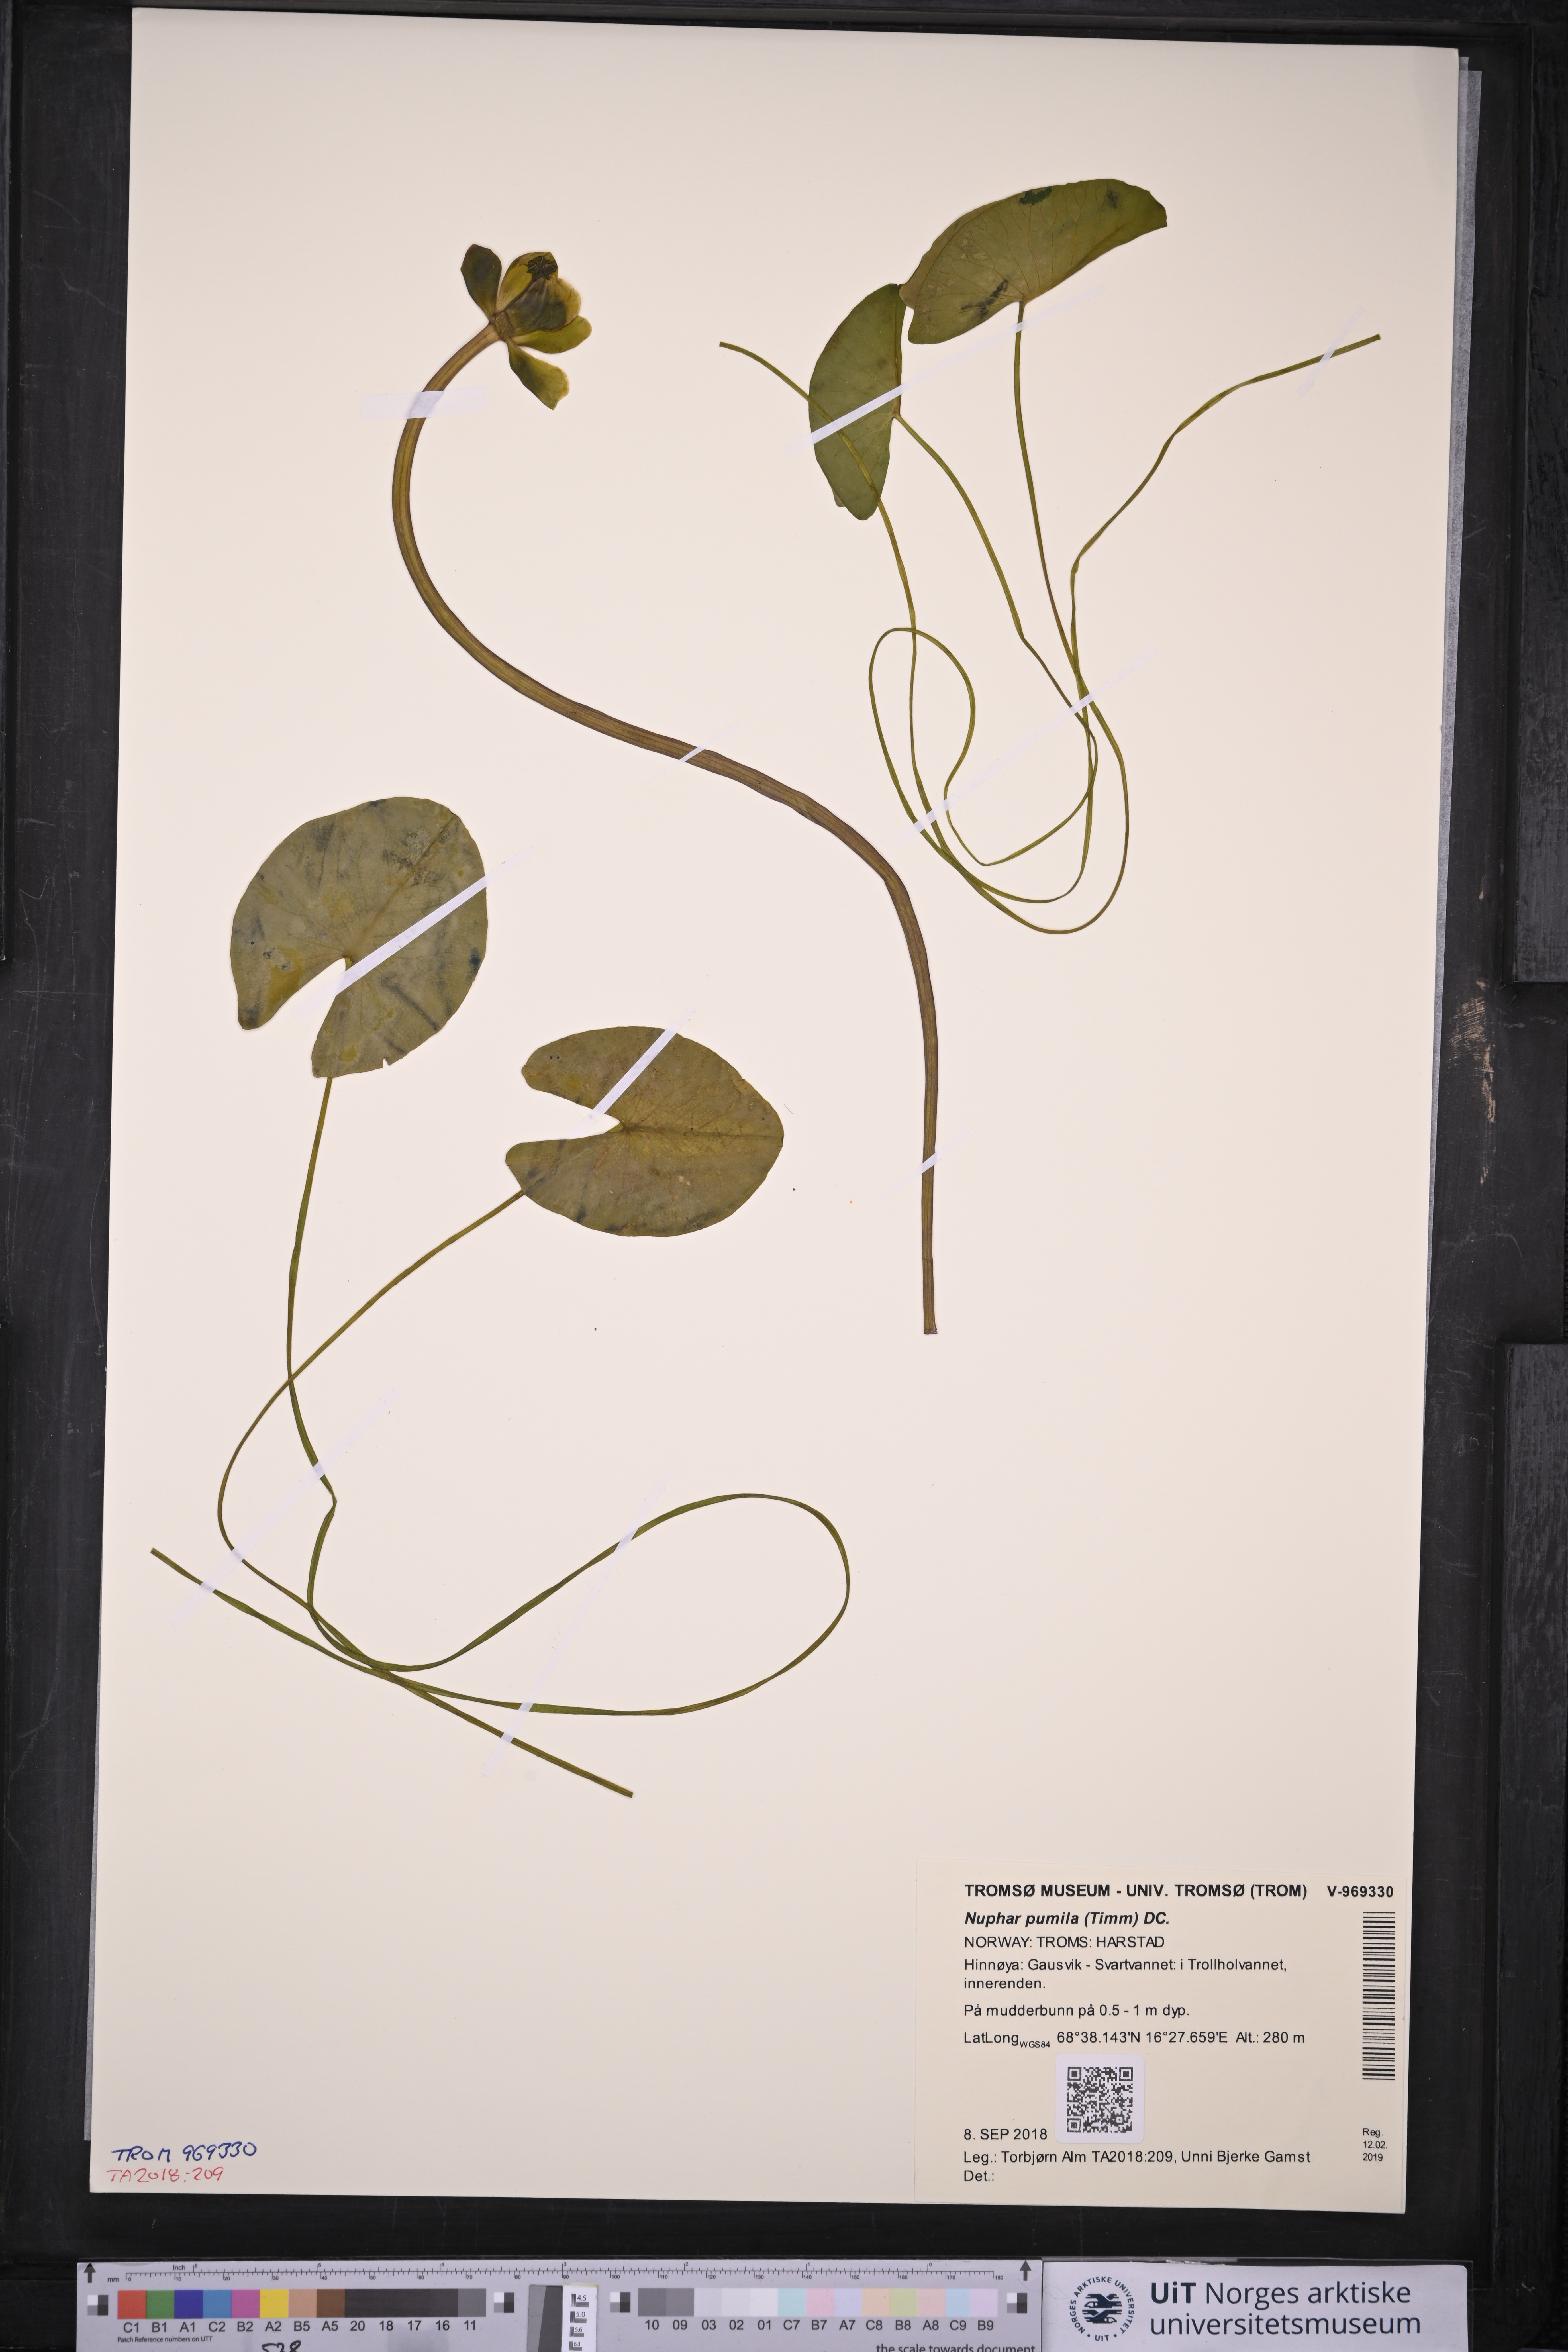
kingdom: Plantae
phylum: Tracheophyta
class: Magnoliopsida
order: Nymphaeales
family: Nymphaeaceae
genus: Nuphar
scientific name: Nuphar pumila
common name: Least water-lily
